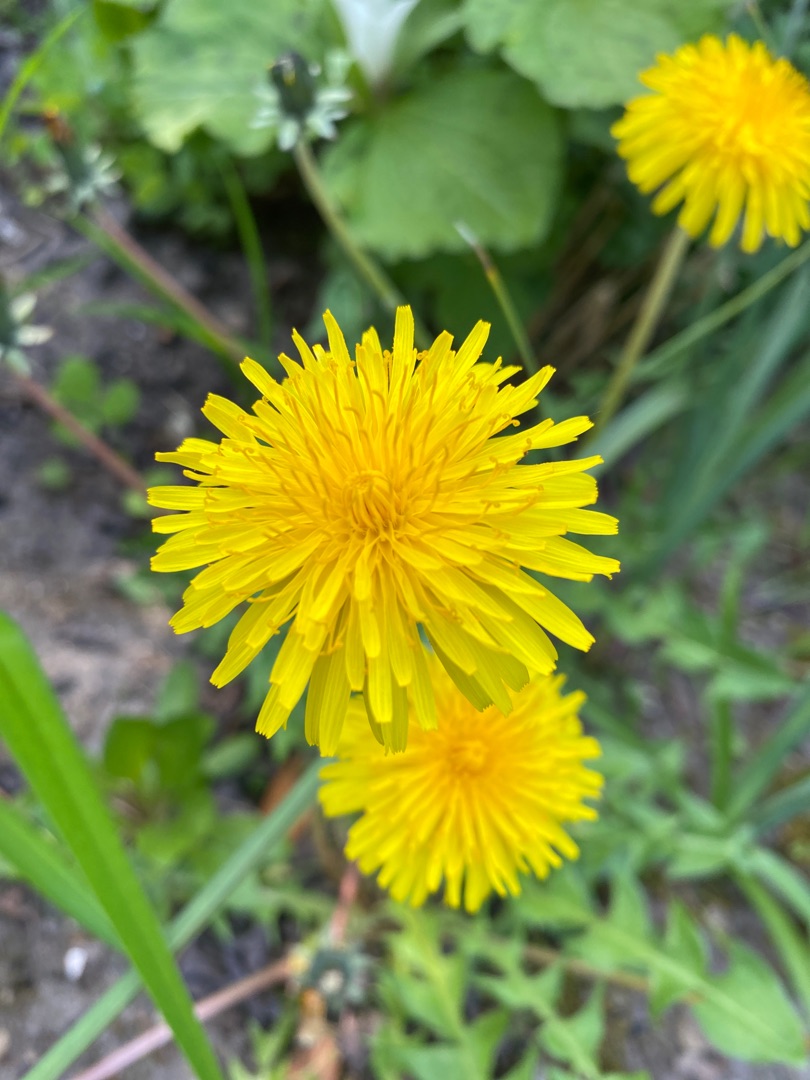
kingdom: Plantae
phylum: Tracheophyta
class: Magnoliopsida
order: Asterales
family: Asteraceae
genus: Taraxacum
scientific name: Taraxacum
